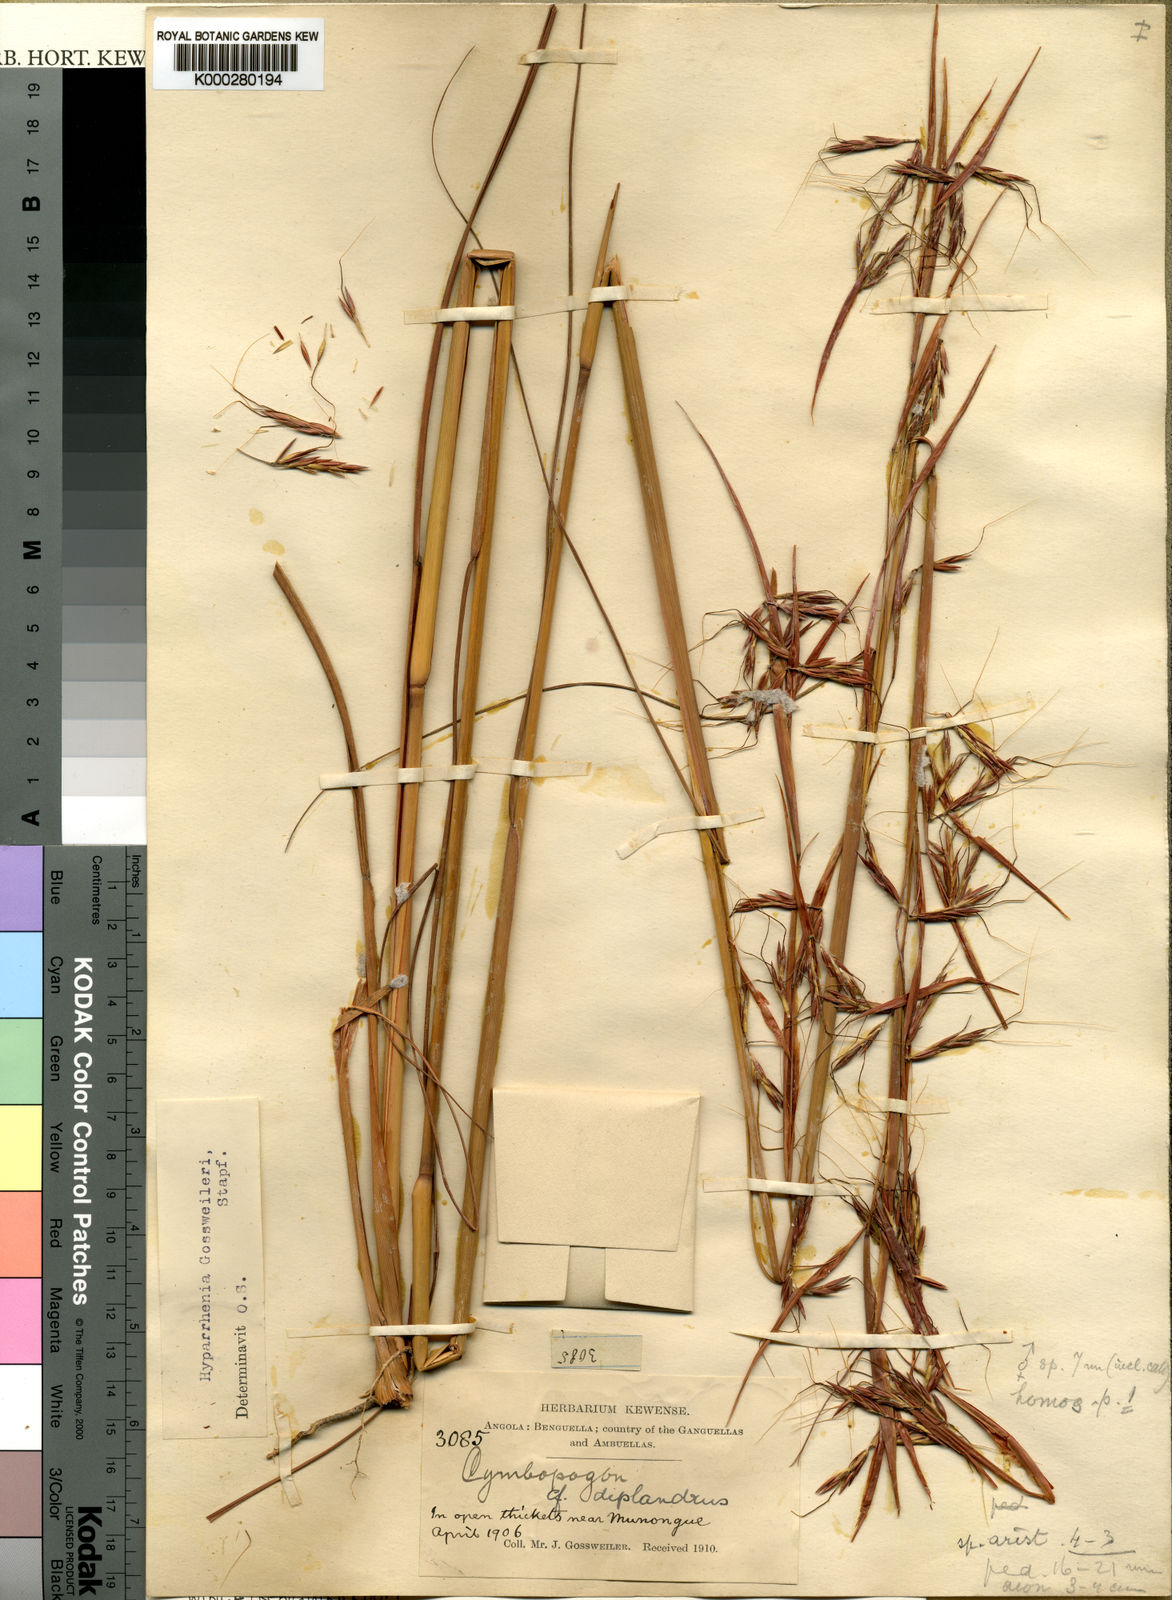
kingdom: Plantae
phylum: Tracheophyta
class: Liliopsida
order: Poales
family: Poaceae
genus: Hyparrhenia
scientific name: Hyparrhenia gossweileri
